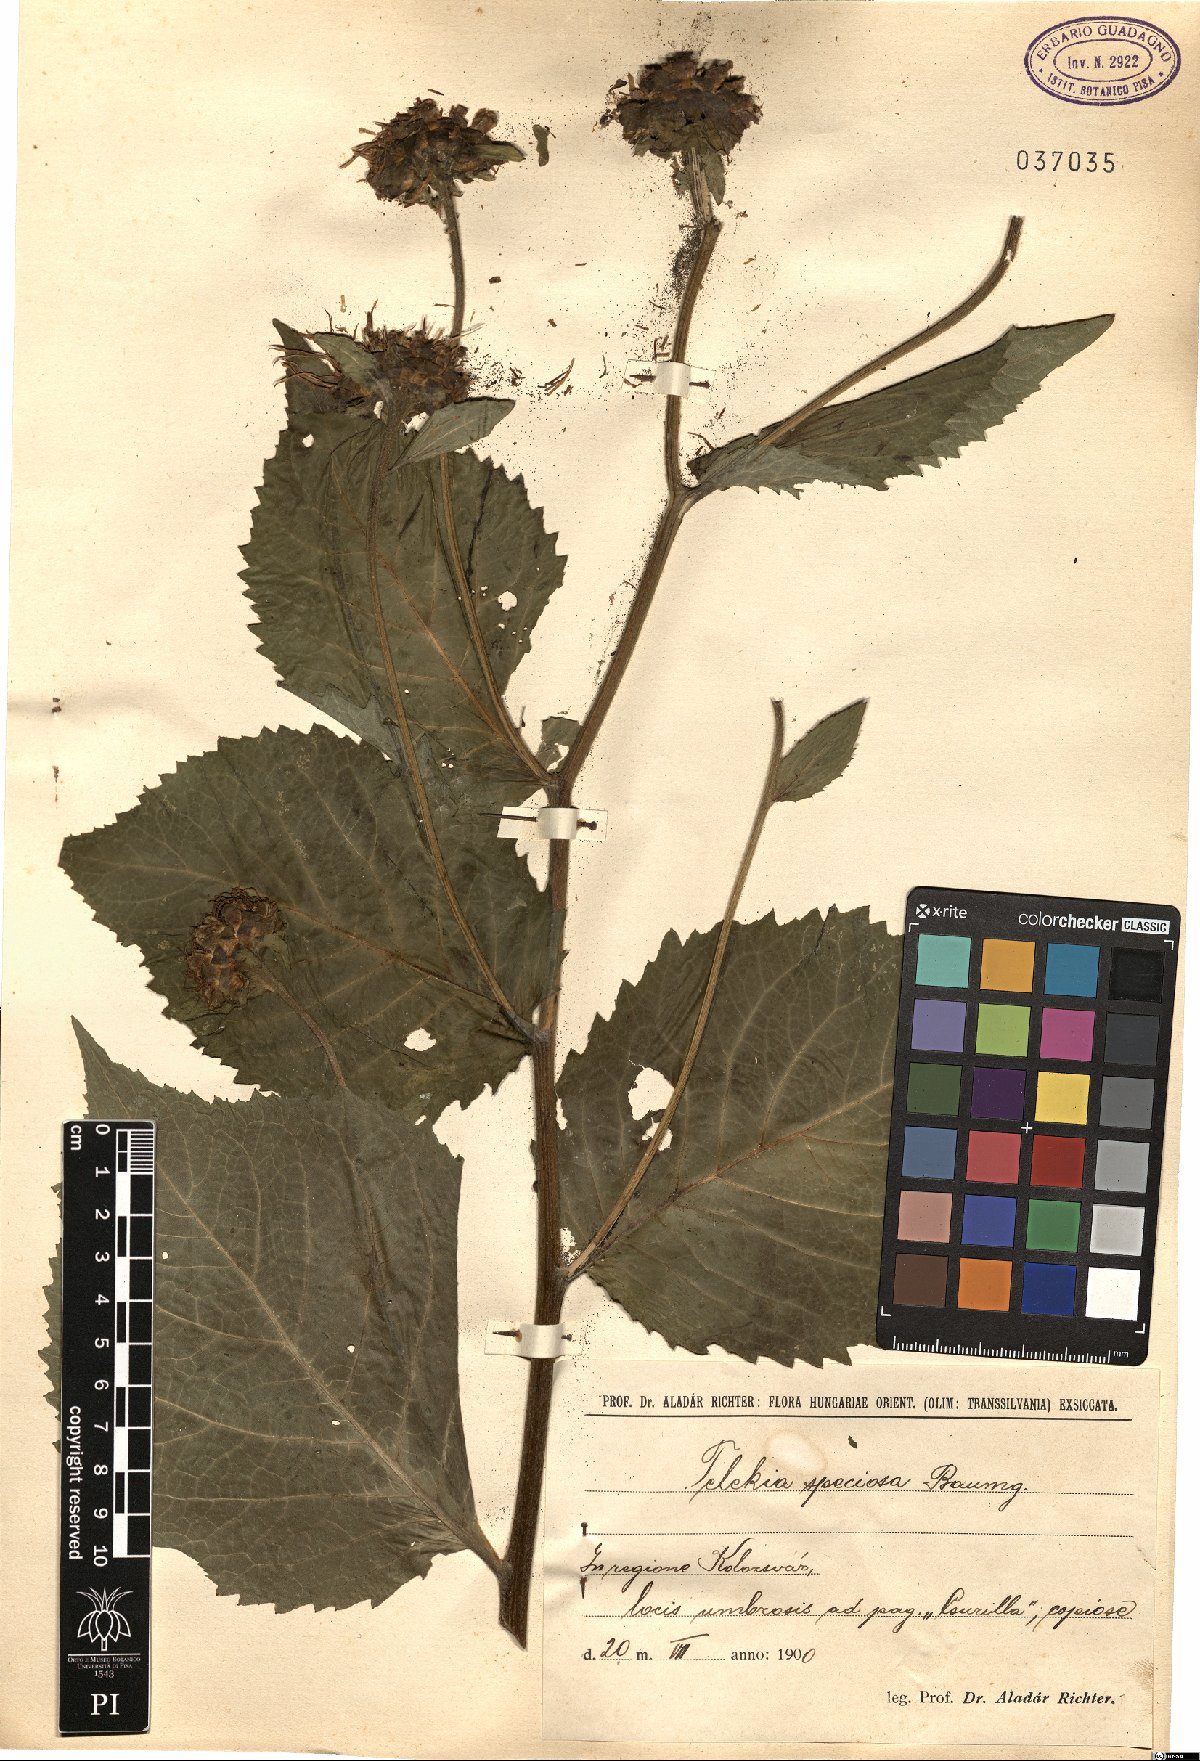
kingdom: Plantae
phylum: Tracheophyta
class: Magnoliopsida
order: Asterales
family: Asteraceae
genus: Telekia
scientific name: Telekia speciosa
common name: Yellow oxeye
